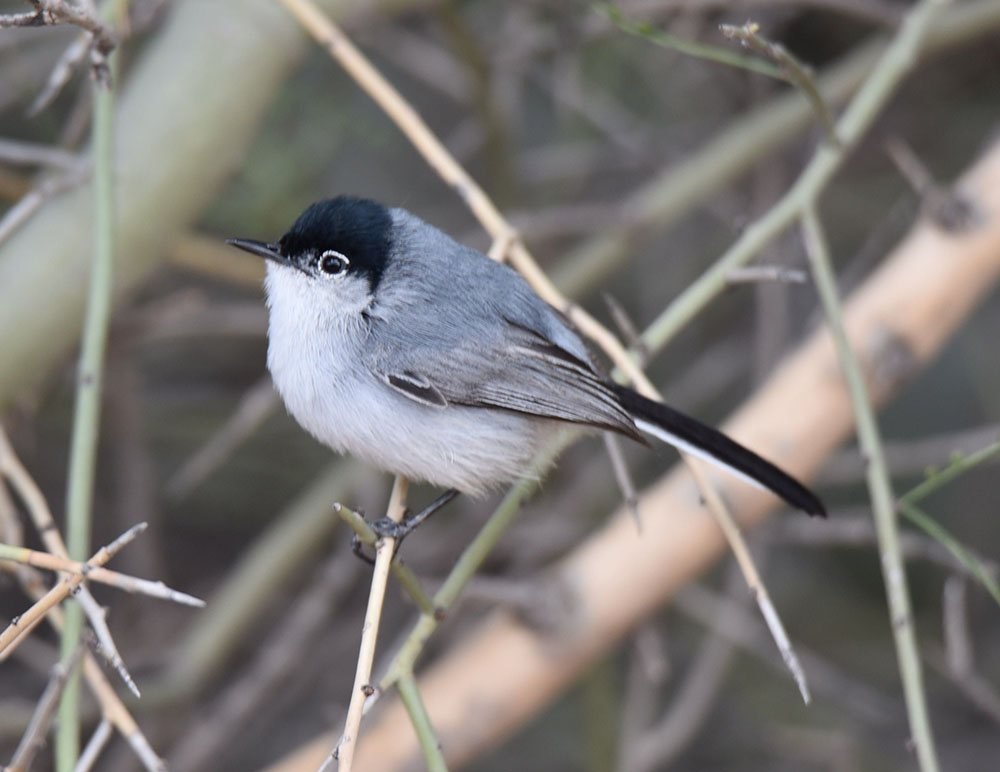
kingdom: Animalia
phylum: Chordata
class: Aves
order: Passeriformes
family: Polioptilidae
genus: Polioptila
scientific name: Polioptila melanura
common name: Black-tailed gnatcatcher
